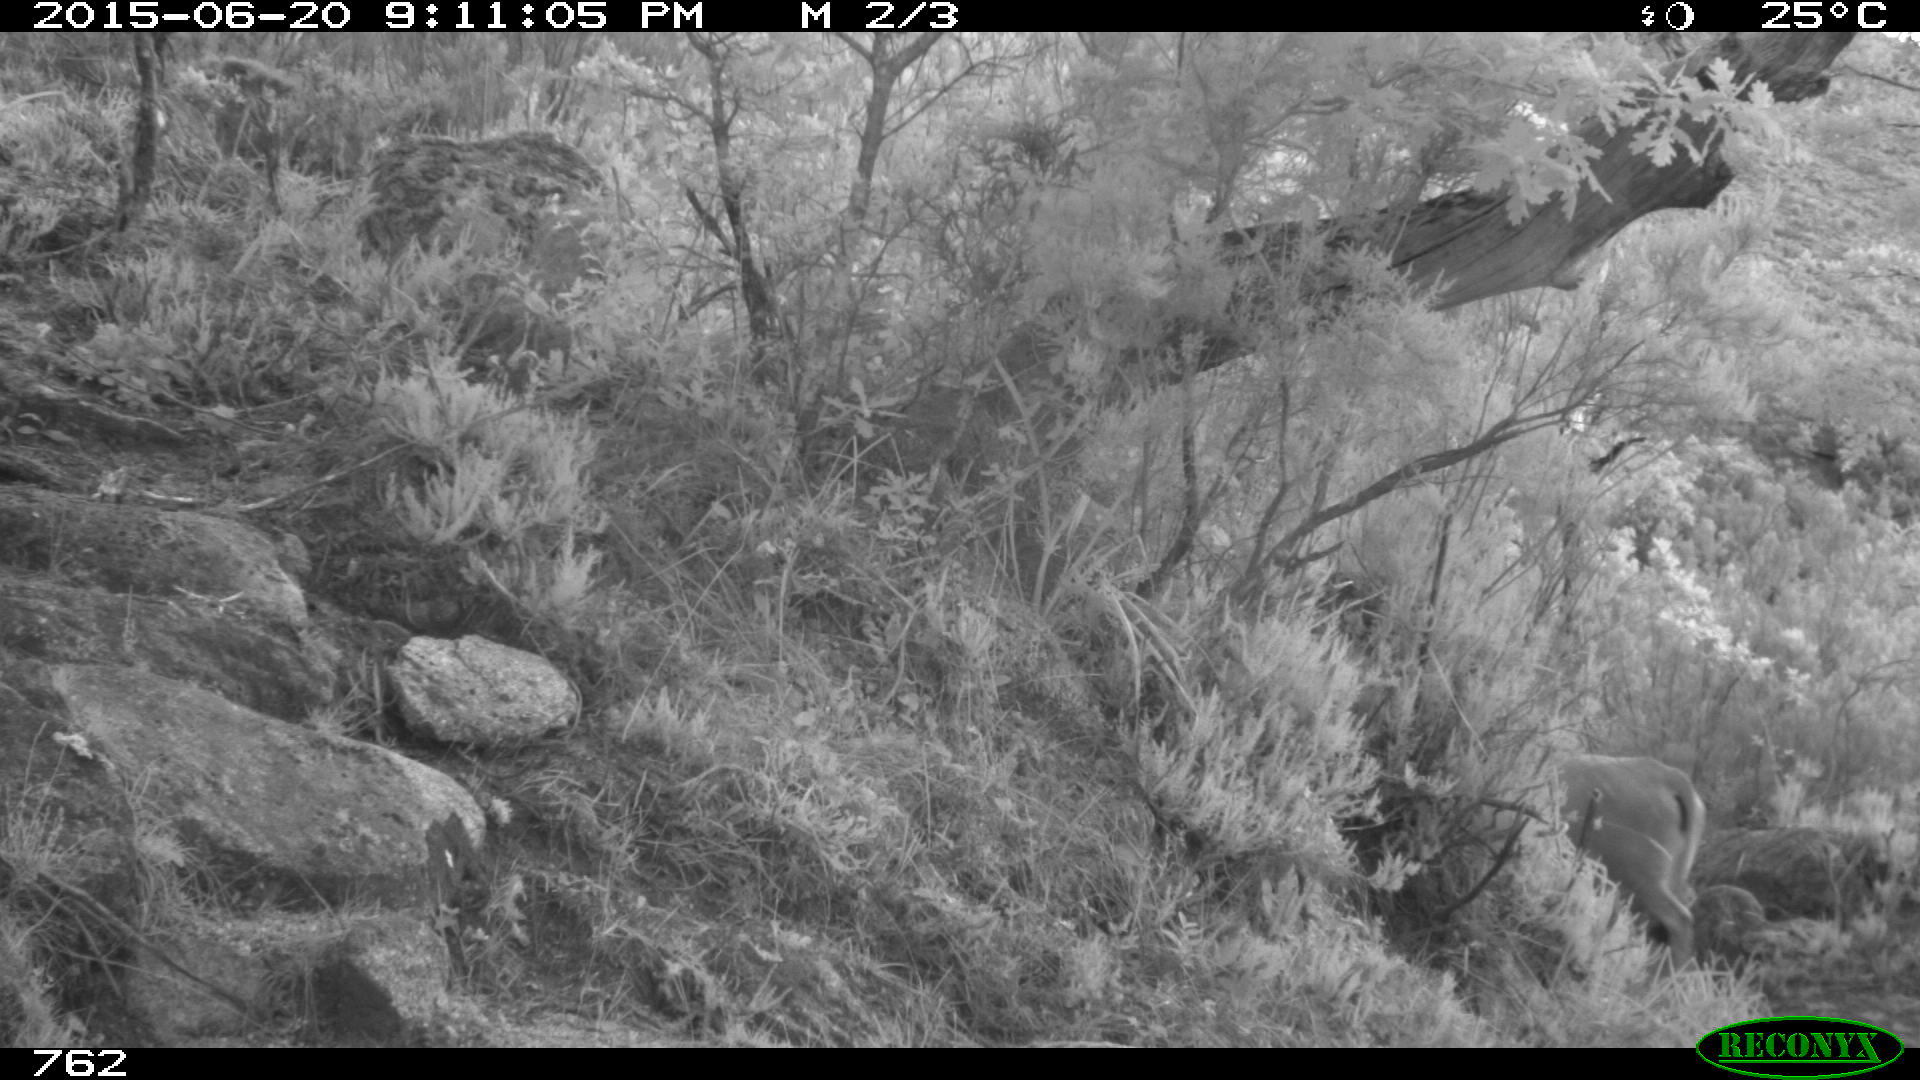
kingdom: Animalia
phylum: Chordata
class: Mammalia
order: Artiodactyla
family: Bovidae
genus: Bos
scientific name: Bos taurus
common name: Domesticated cattle
